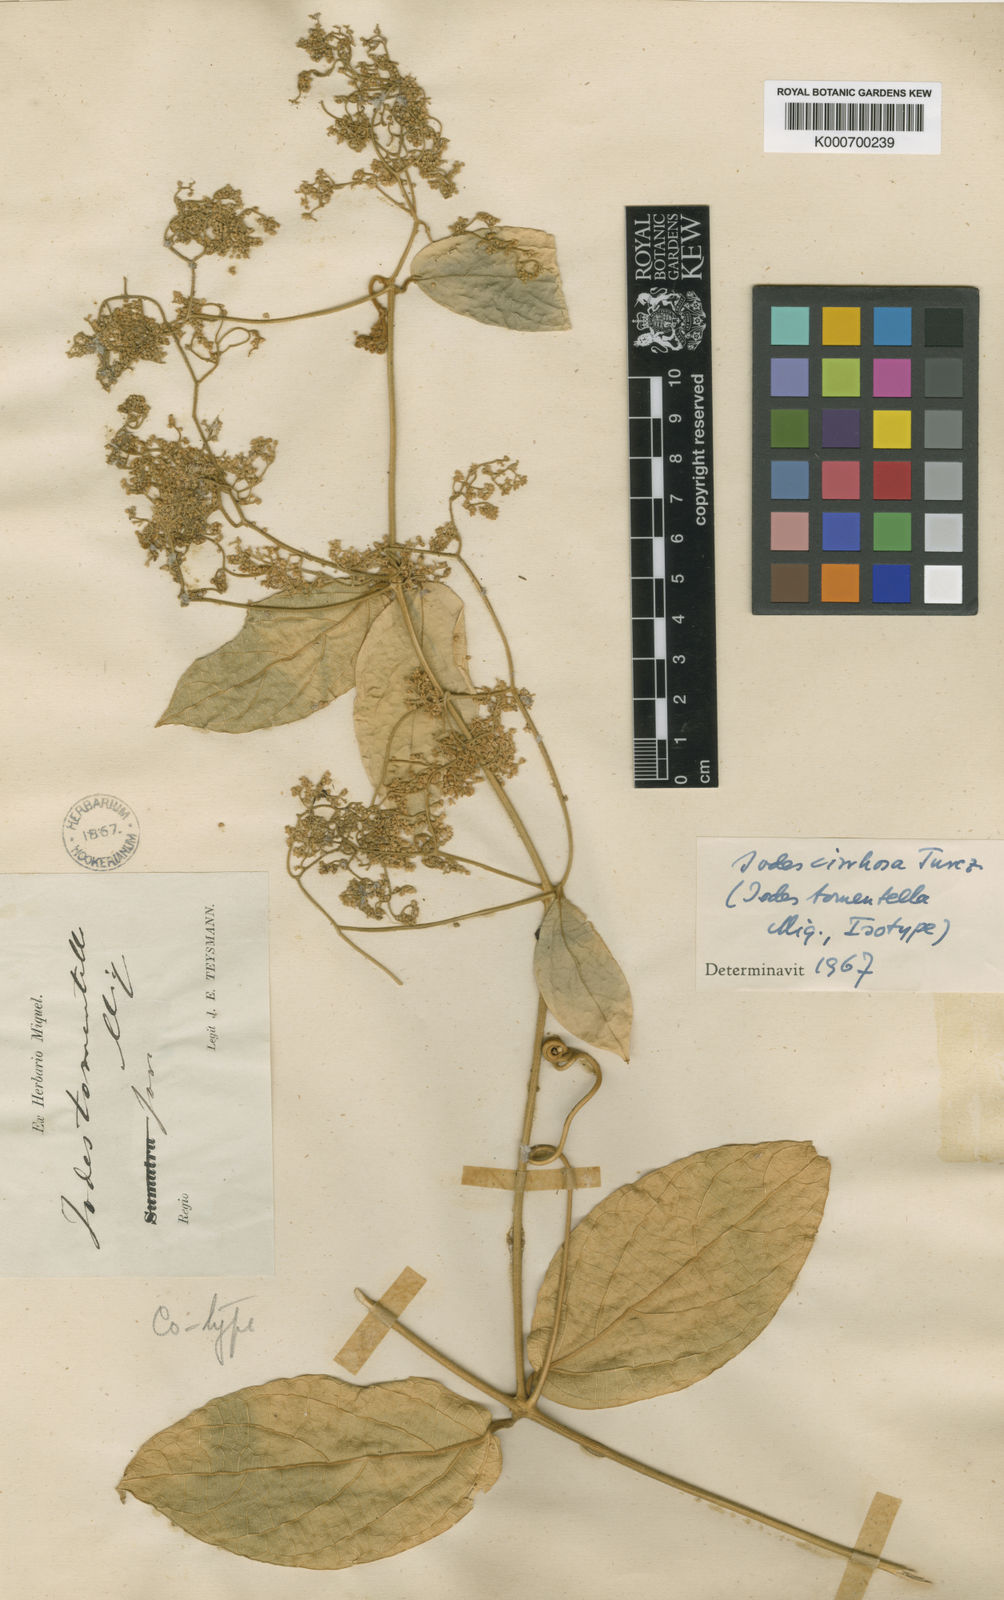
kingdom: Plantae
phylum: Tracheophyta
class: Magnoliopsida
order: Icacinales
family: Icacinaceae
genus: Iodes
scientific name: Iodes cirrhosa
